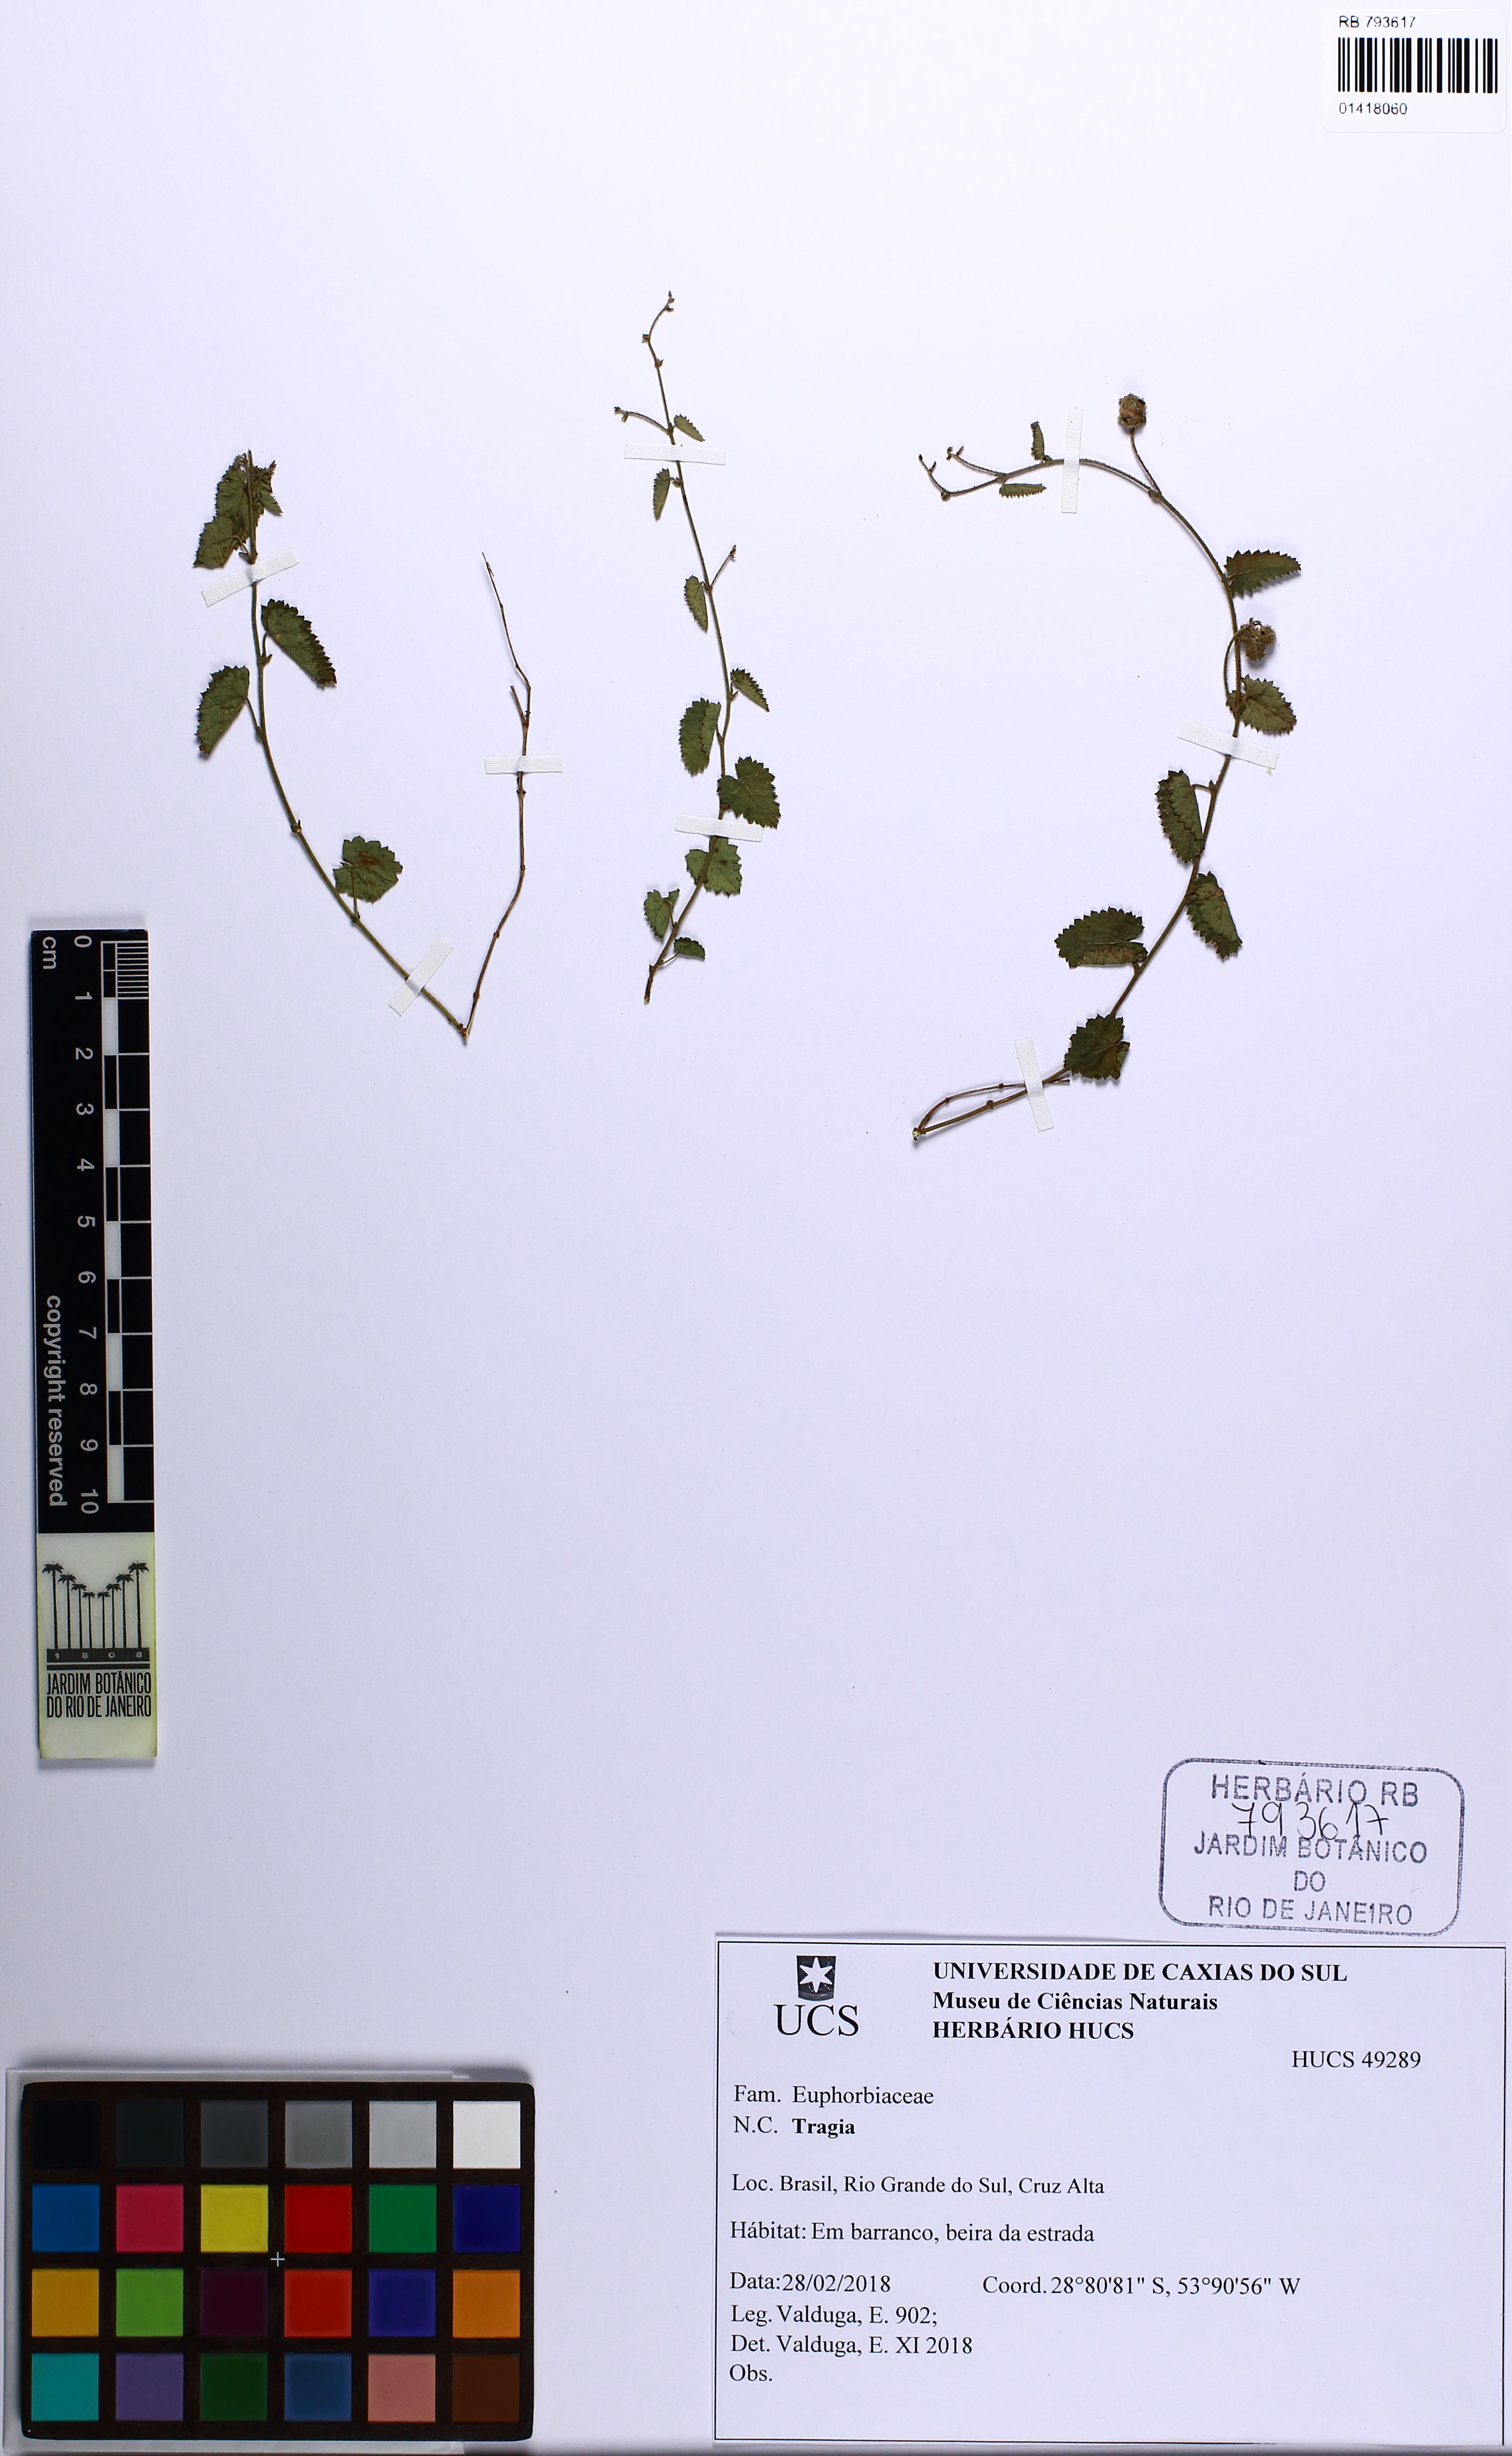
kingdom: Plantae
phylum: Tracheophyta
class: Magnoliopsida
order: Malpighiales
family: Euphorbiaceae
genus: Tragia
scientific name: Tragia
